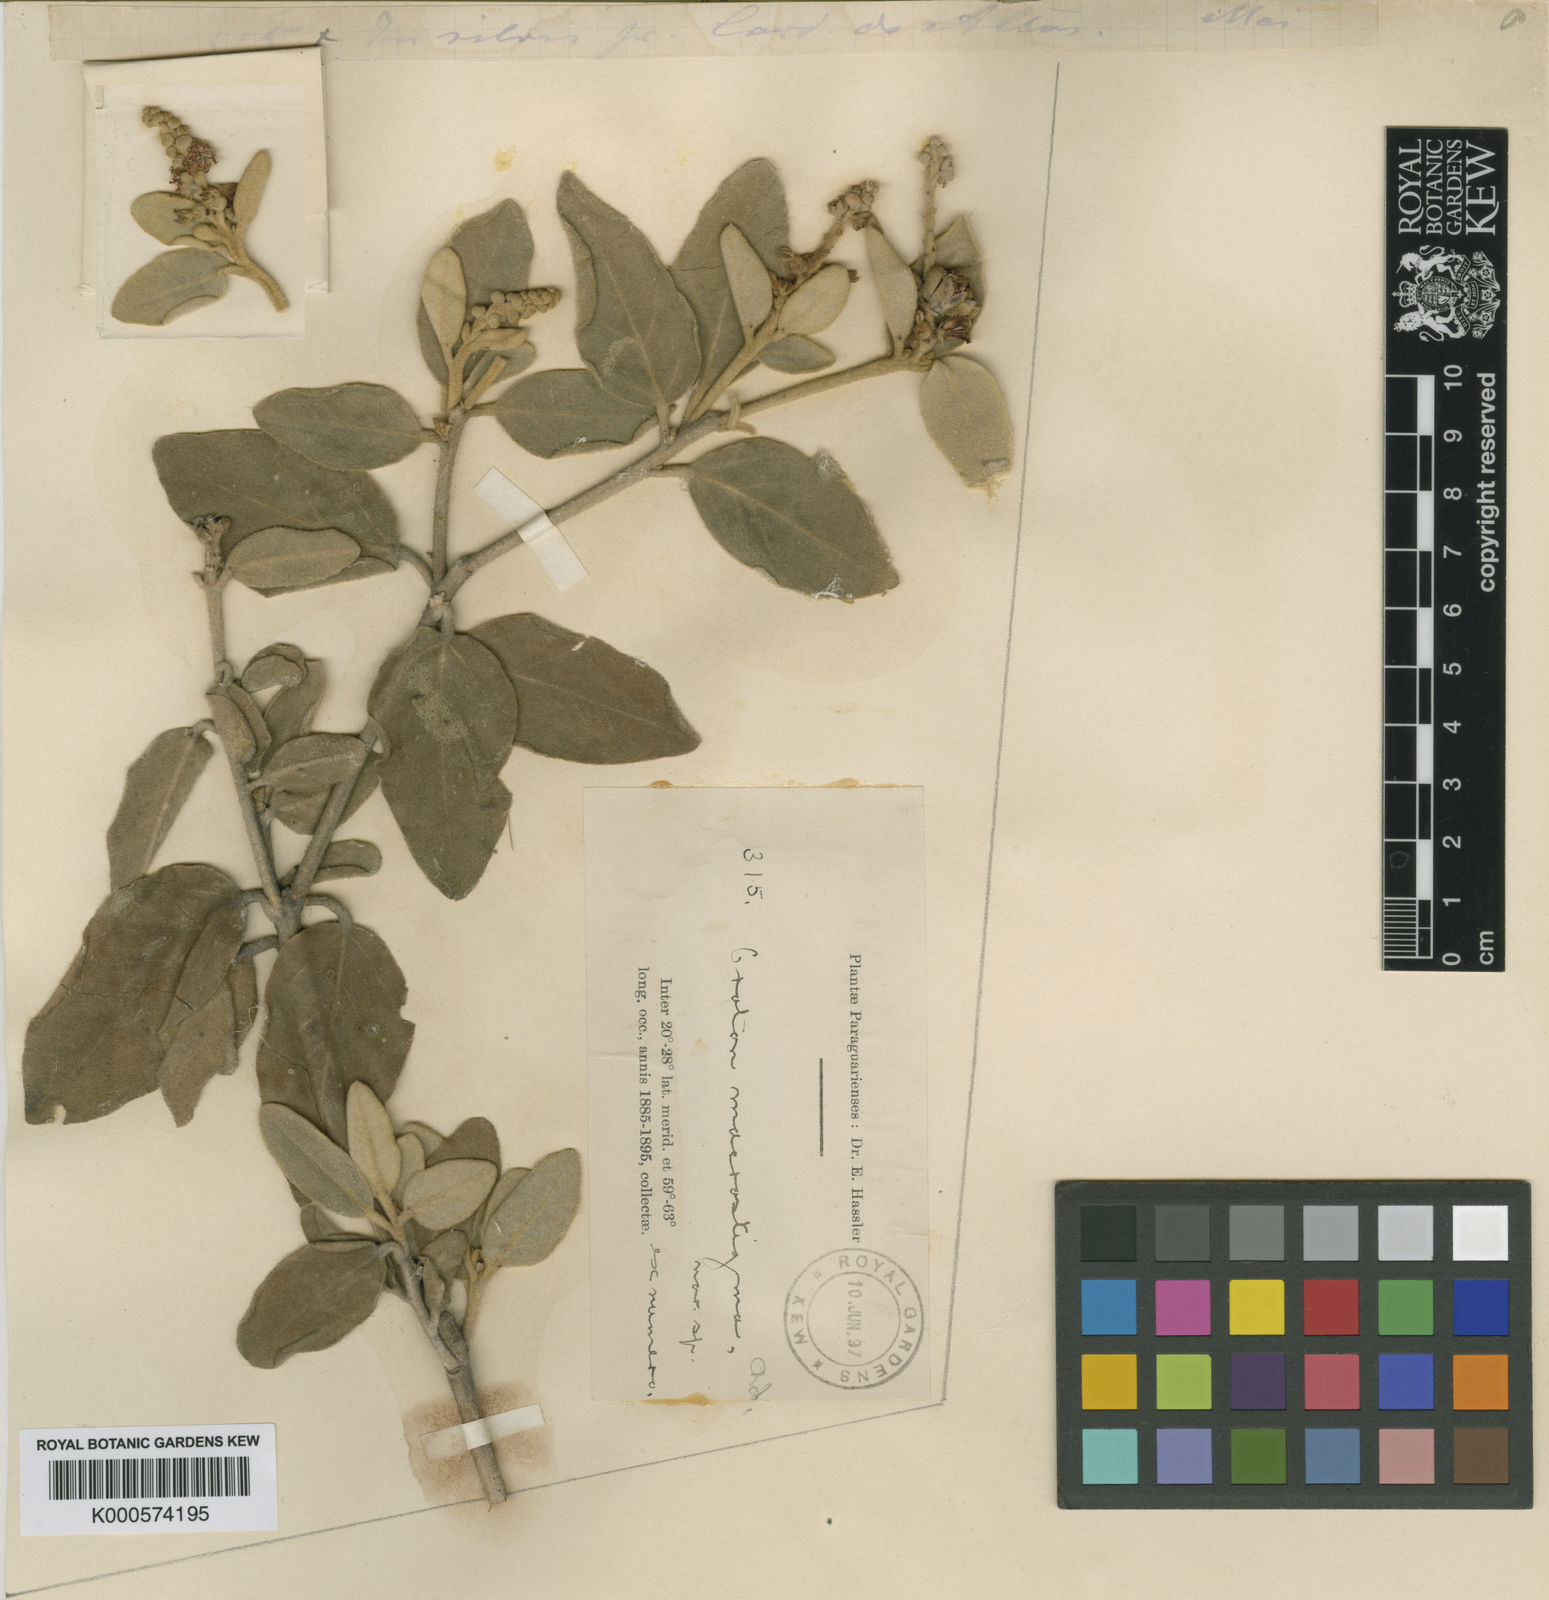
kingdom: Plantae
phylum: Tracheophyta
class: Magnoliopsida
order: Malpighiales
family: Euphorbiaceae
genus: Croton
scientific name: Croton macrostigma
